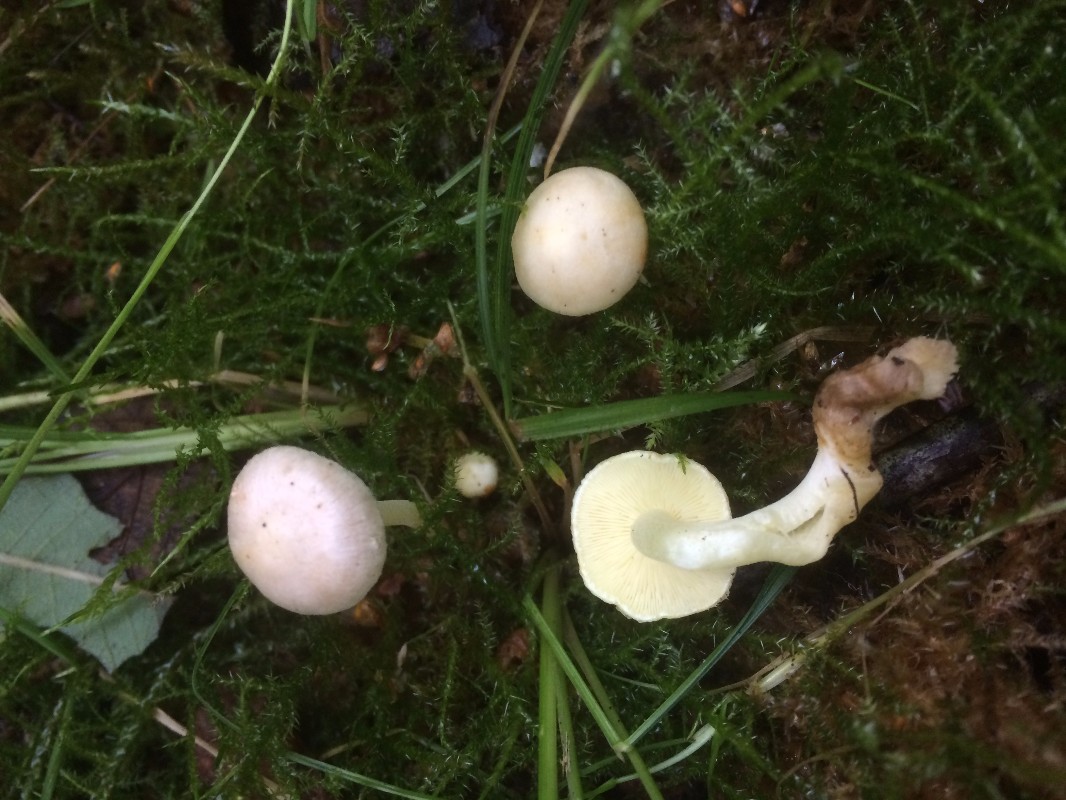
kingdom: Fungi
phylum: Basidiomycota
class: Agaricomycetes
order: Agaricales
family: Inocybaceae
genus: Inocybe
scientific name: Inocybe paludinella
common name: mose-trævlhat
